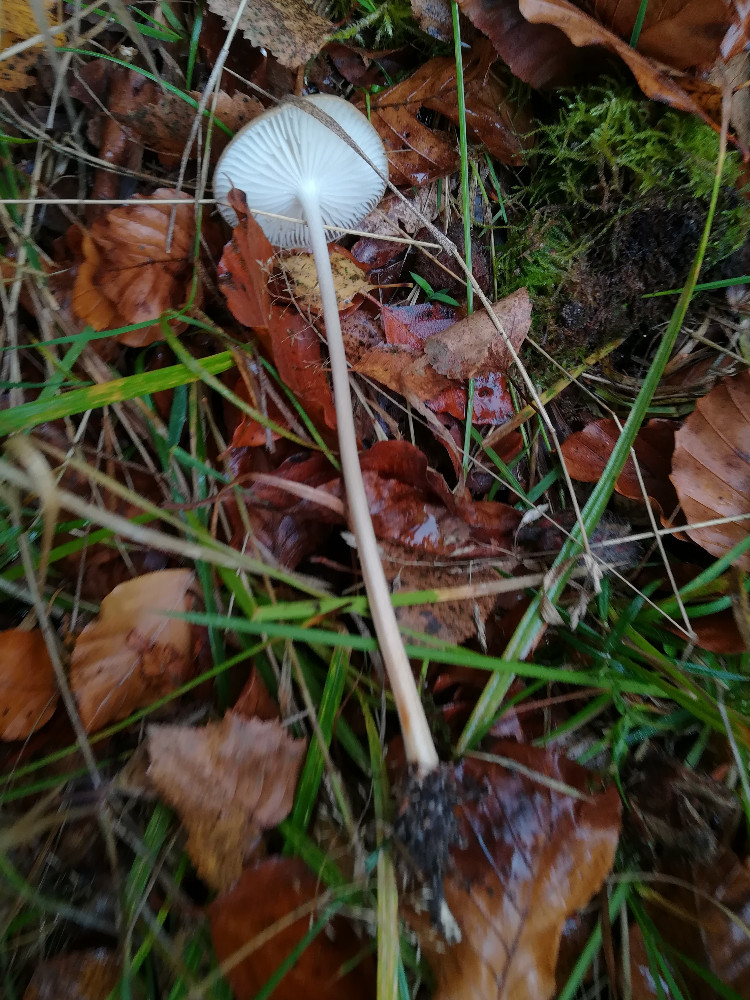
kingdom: Fungi
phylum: Basidiomycota
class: Agaricomycetes
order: Agaricales
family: Physalacriaceae
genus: Hymenopellis
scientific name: Hymenopellis radicata
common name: almindelig pælerodshat
